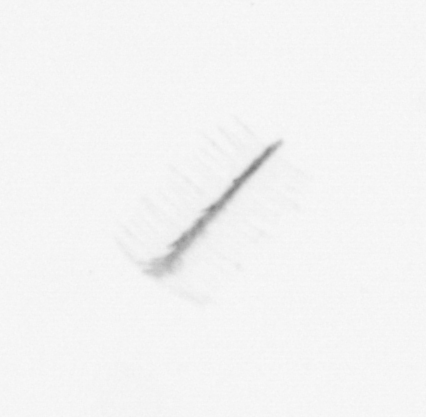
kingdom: Chromista
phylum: Ochrophyta
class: Bacillariophyceae
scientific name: Bacillariophyceae
